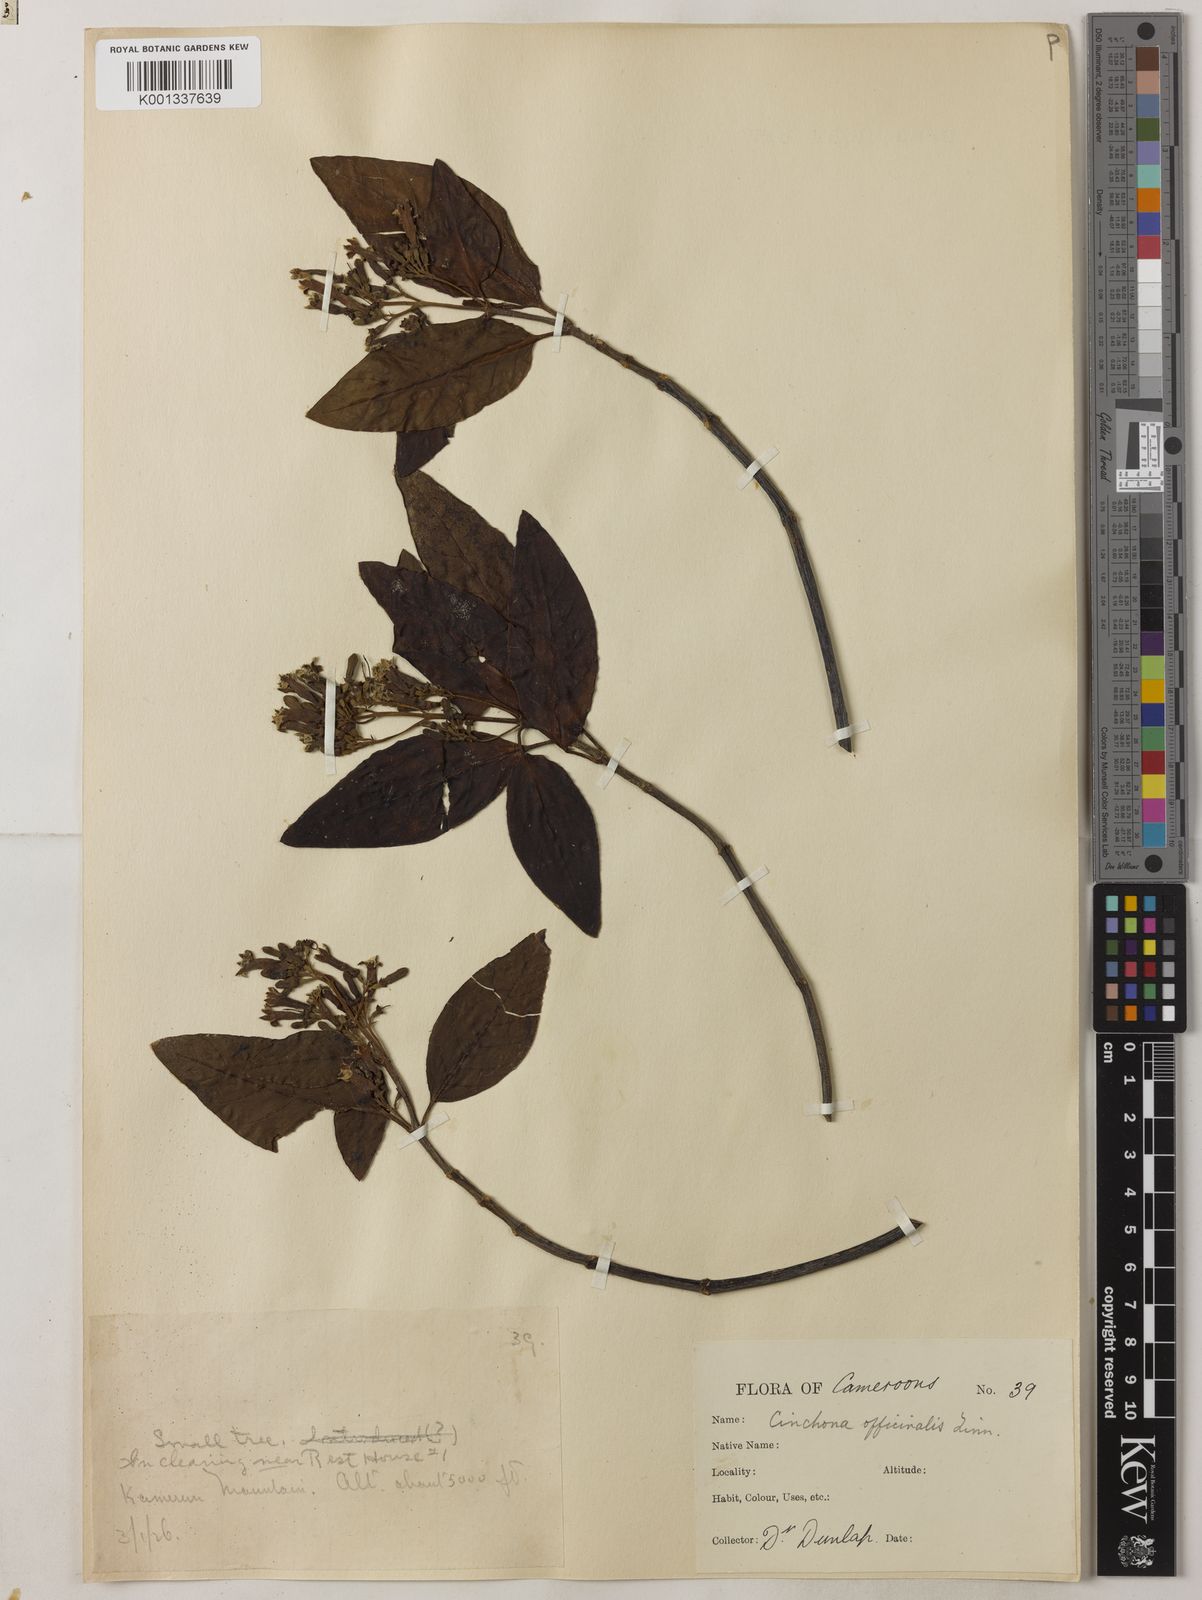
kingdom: Plantae
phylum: Tracheophyta
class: Magnoliopsida
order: Gentianales
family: Rubiaceae
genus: Cinchona
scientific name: Cinchona officinalis
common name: Lojabark
